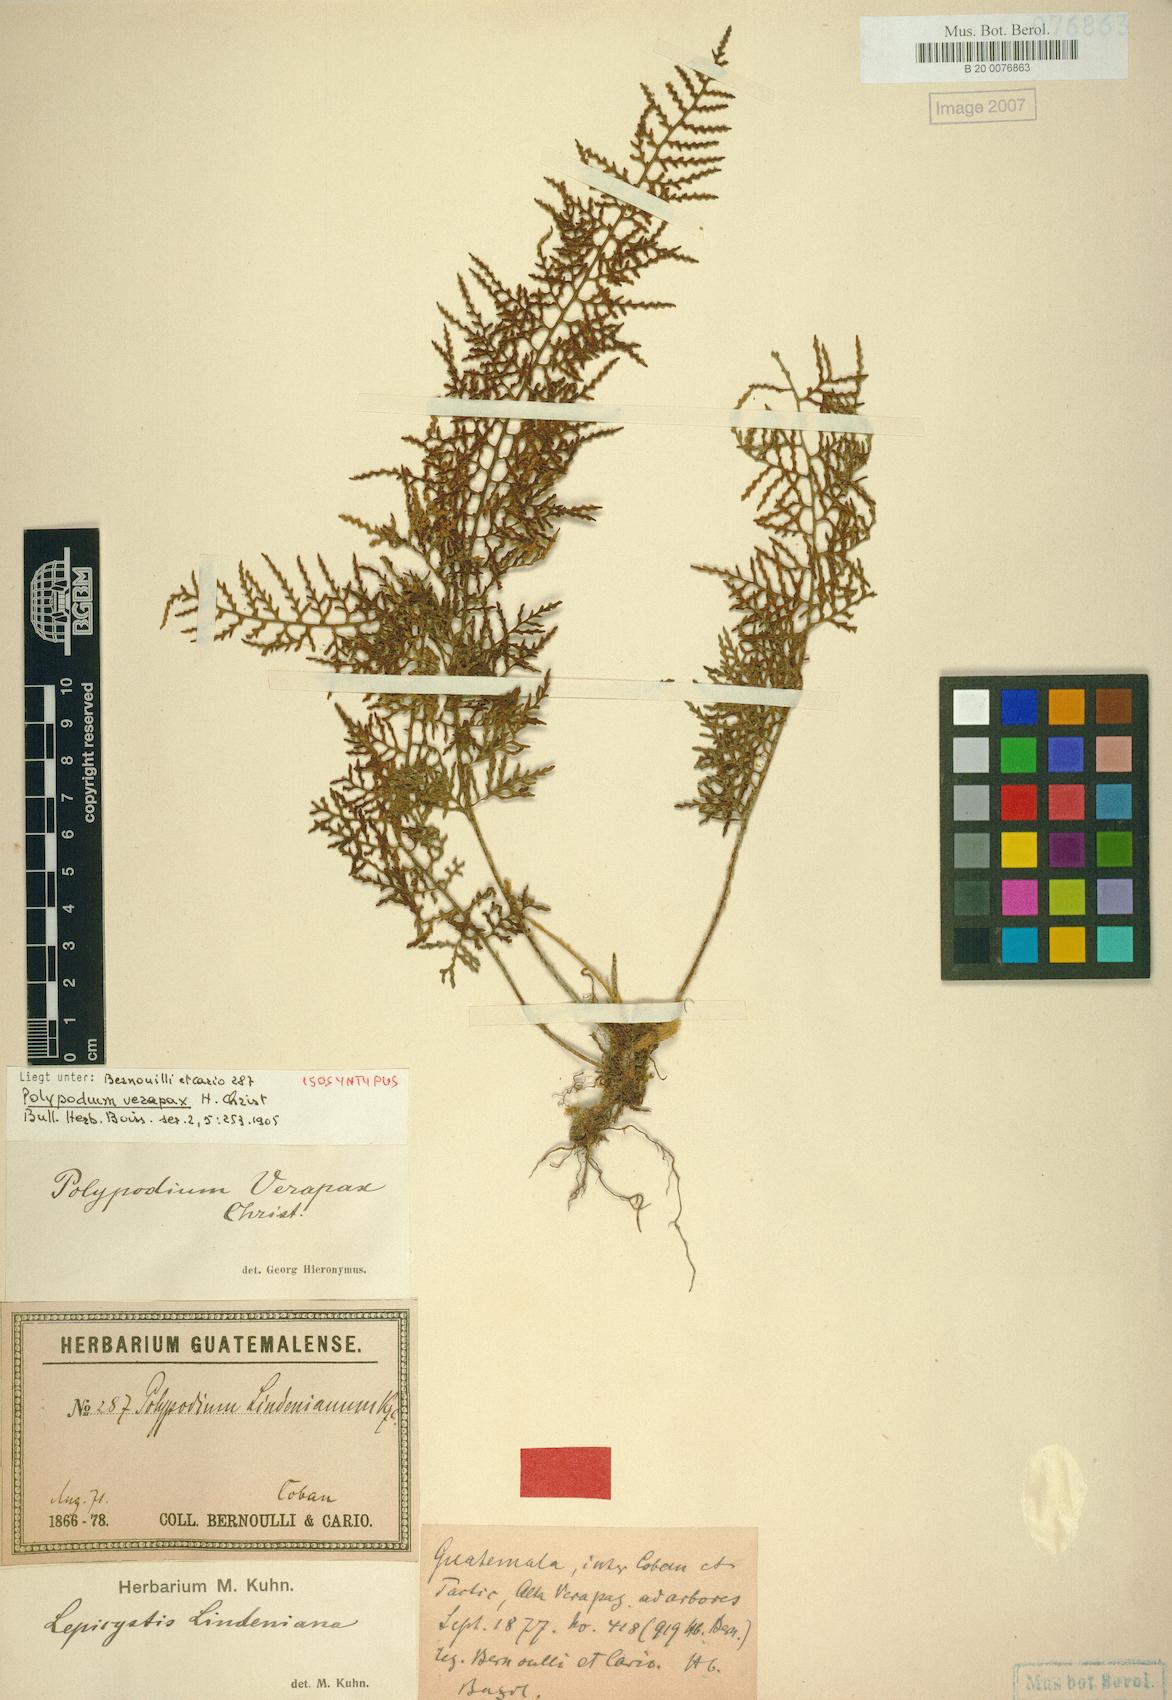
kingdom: Plantae
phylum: Tracheophyta
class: Polypodiopsida
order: Polypodiales
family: Polypodiaceae
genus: Pleopeltis
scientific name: Pleopeltis lindeniana
